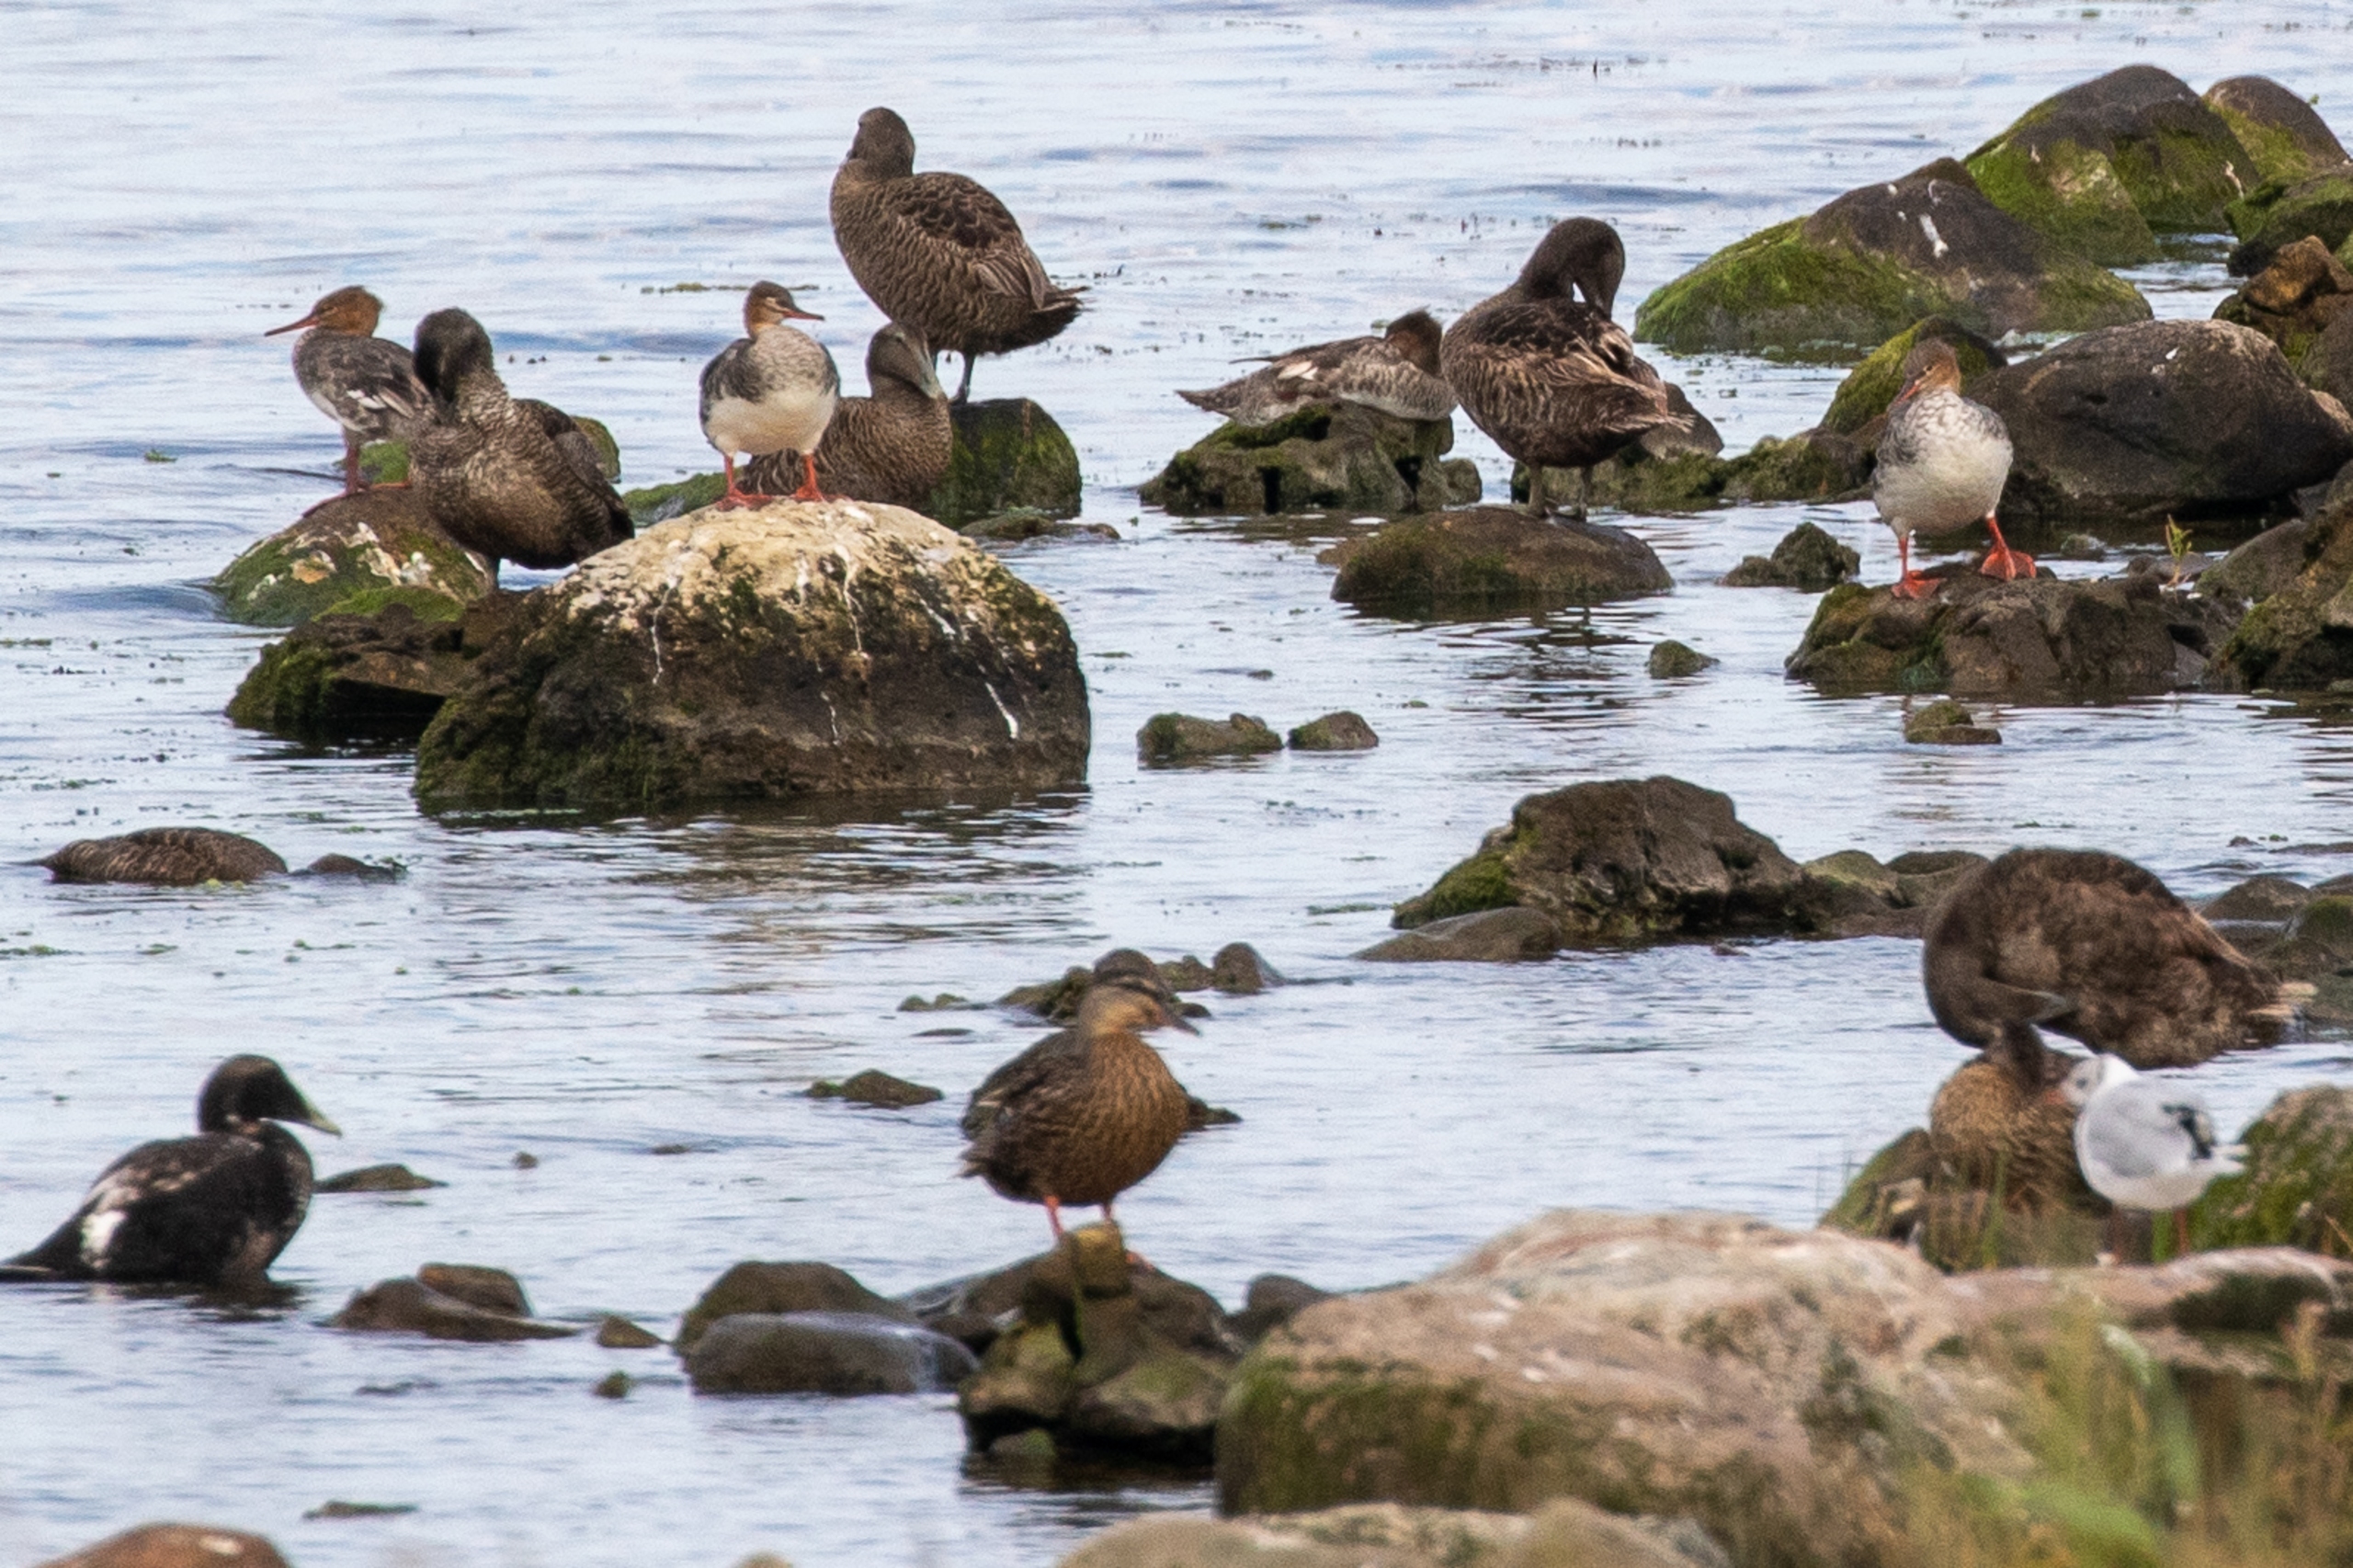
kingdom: Animalia
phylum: Chordata
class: Aves
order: Anseriformes
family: Anatidae
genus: Mergus
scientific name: Mergus serrator
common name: Toppet skallesluger
